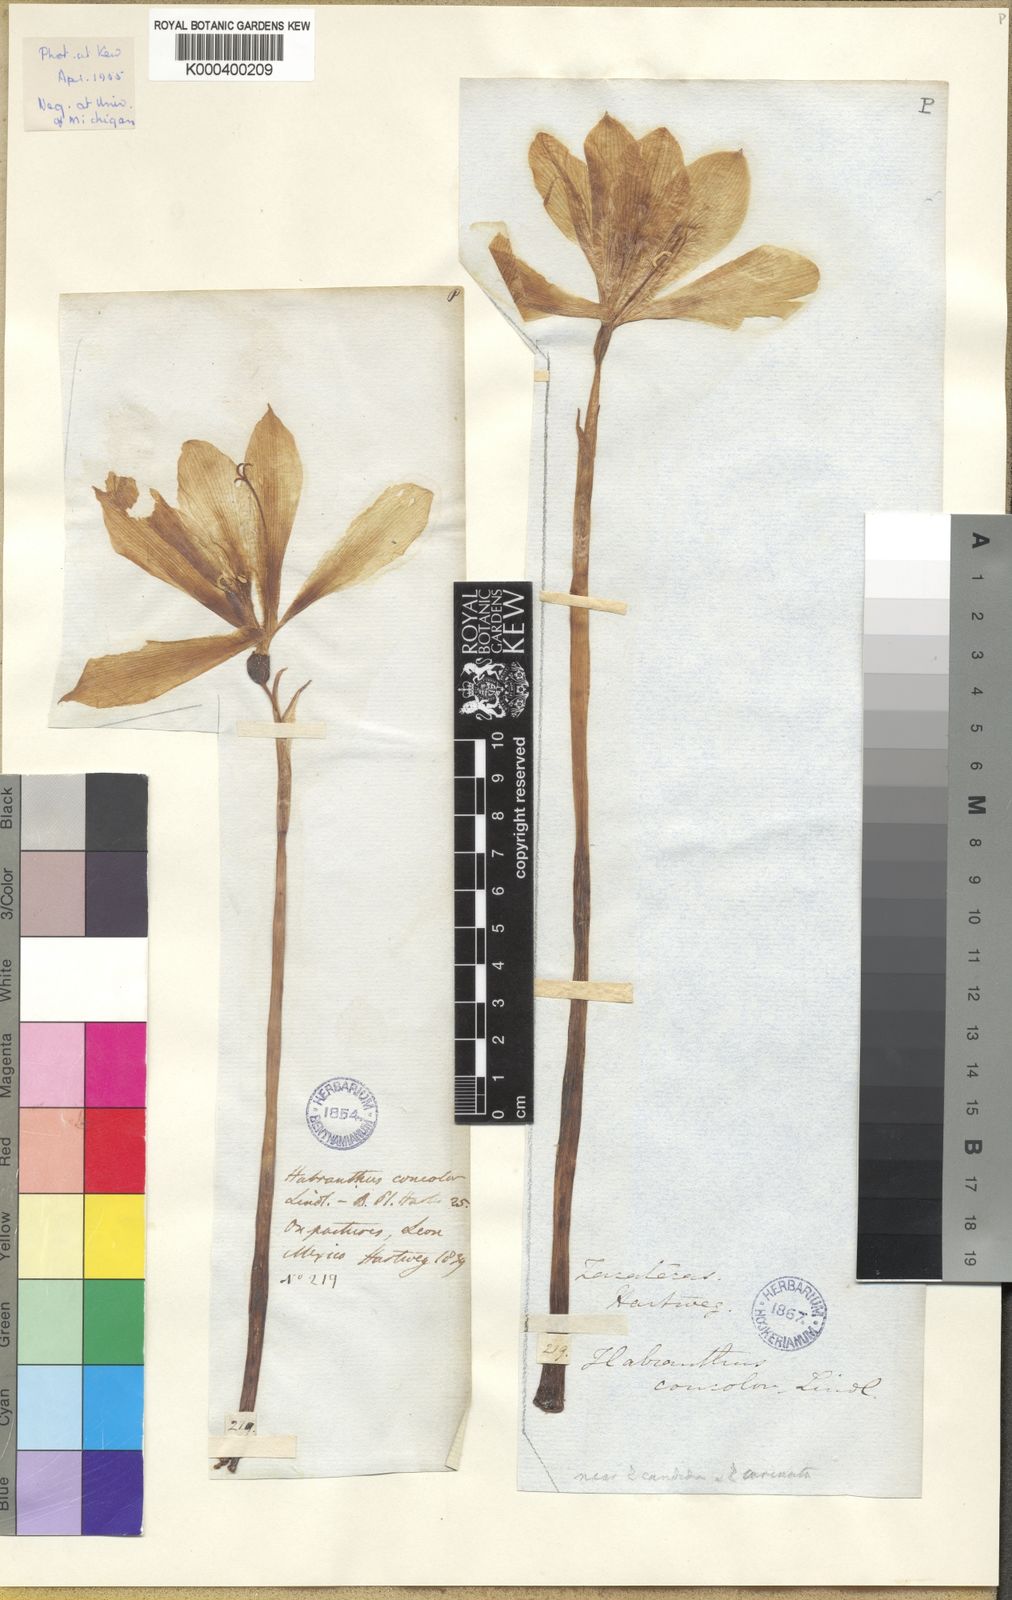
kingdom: Plantae
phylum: Tracheophyta
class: Liliopsida
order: Asparagales
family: Amaryllidaceae
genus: Zephyranthes
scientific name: Zephyranthes
